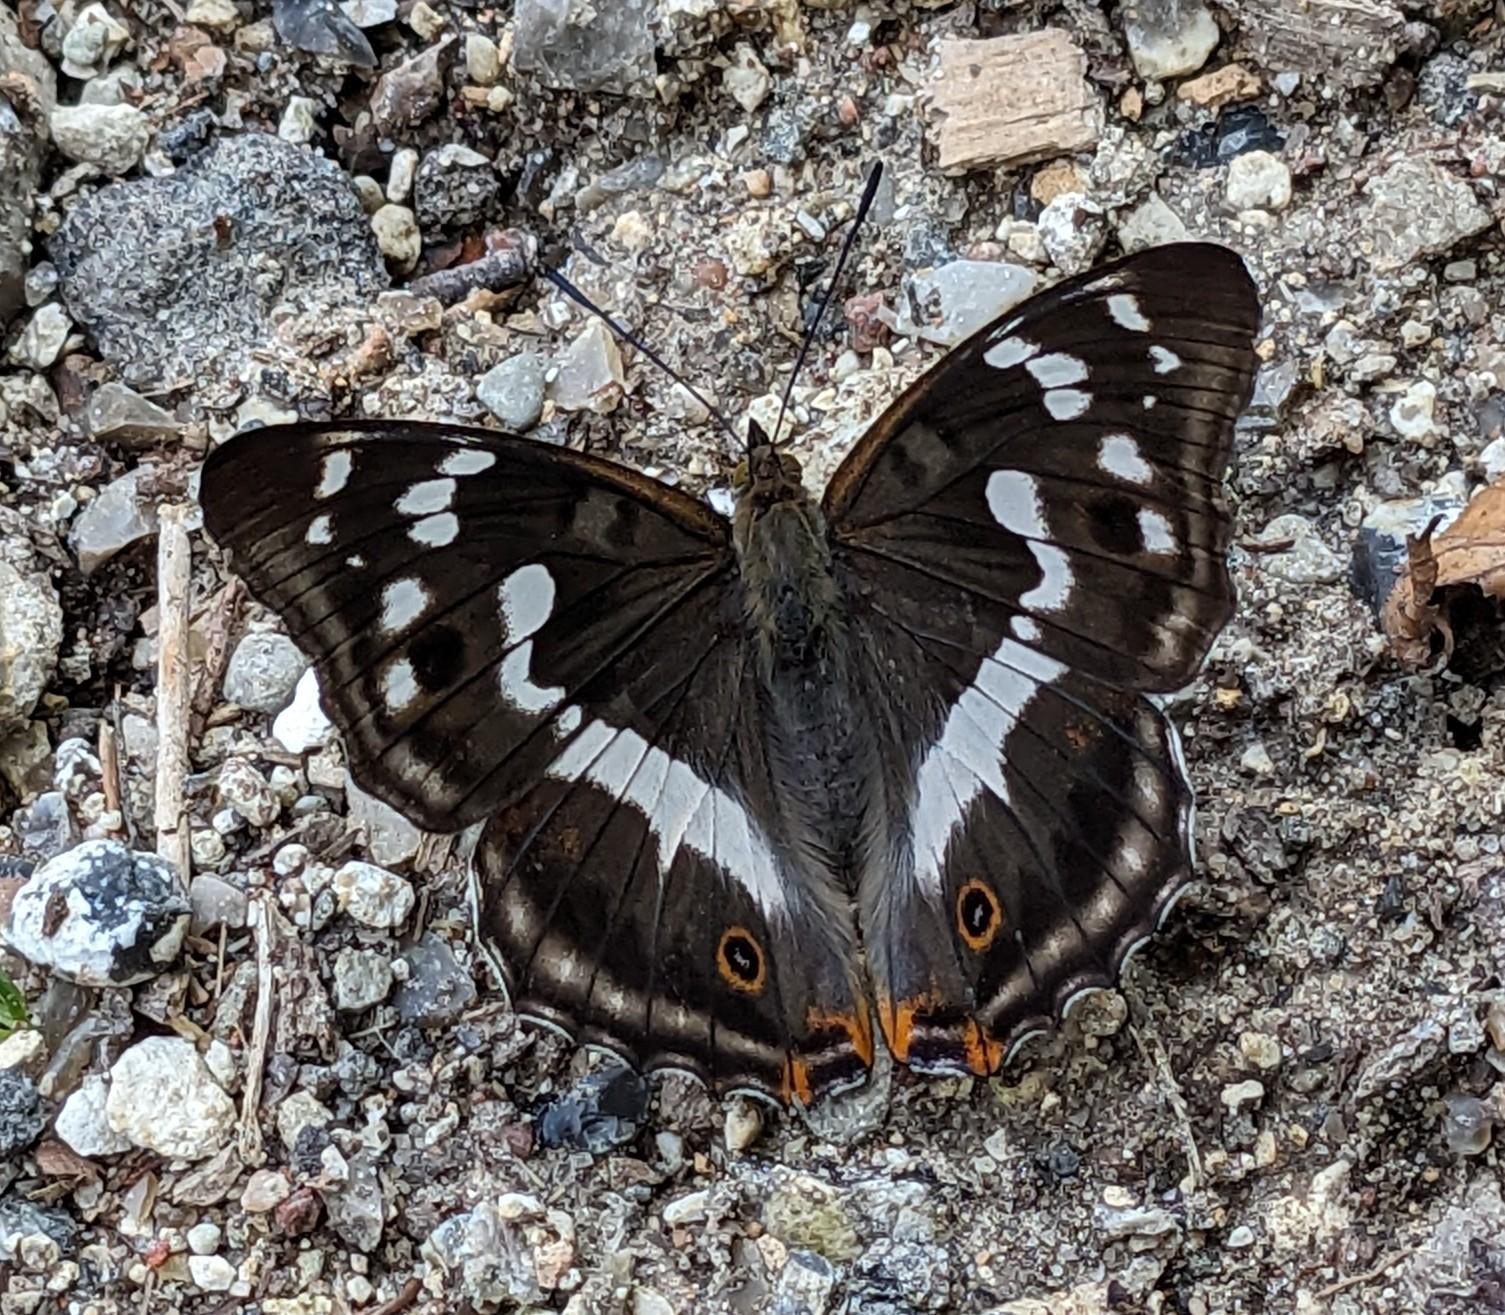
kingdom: Animalia
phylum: Arthropoda
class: Insecta
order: Lepidoptera
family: Nymphalidae
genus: Apatura
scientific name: Apatura iris
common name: Iris
